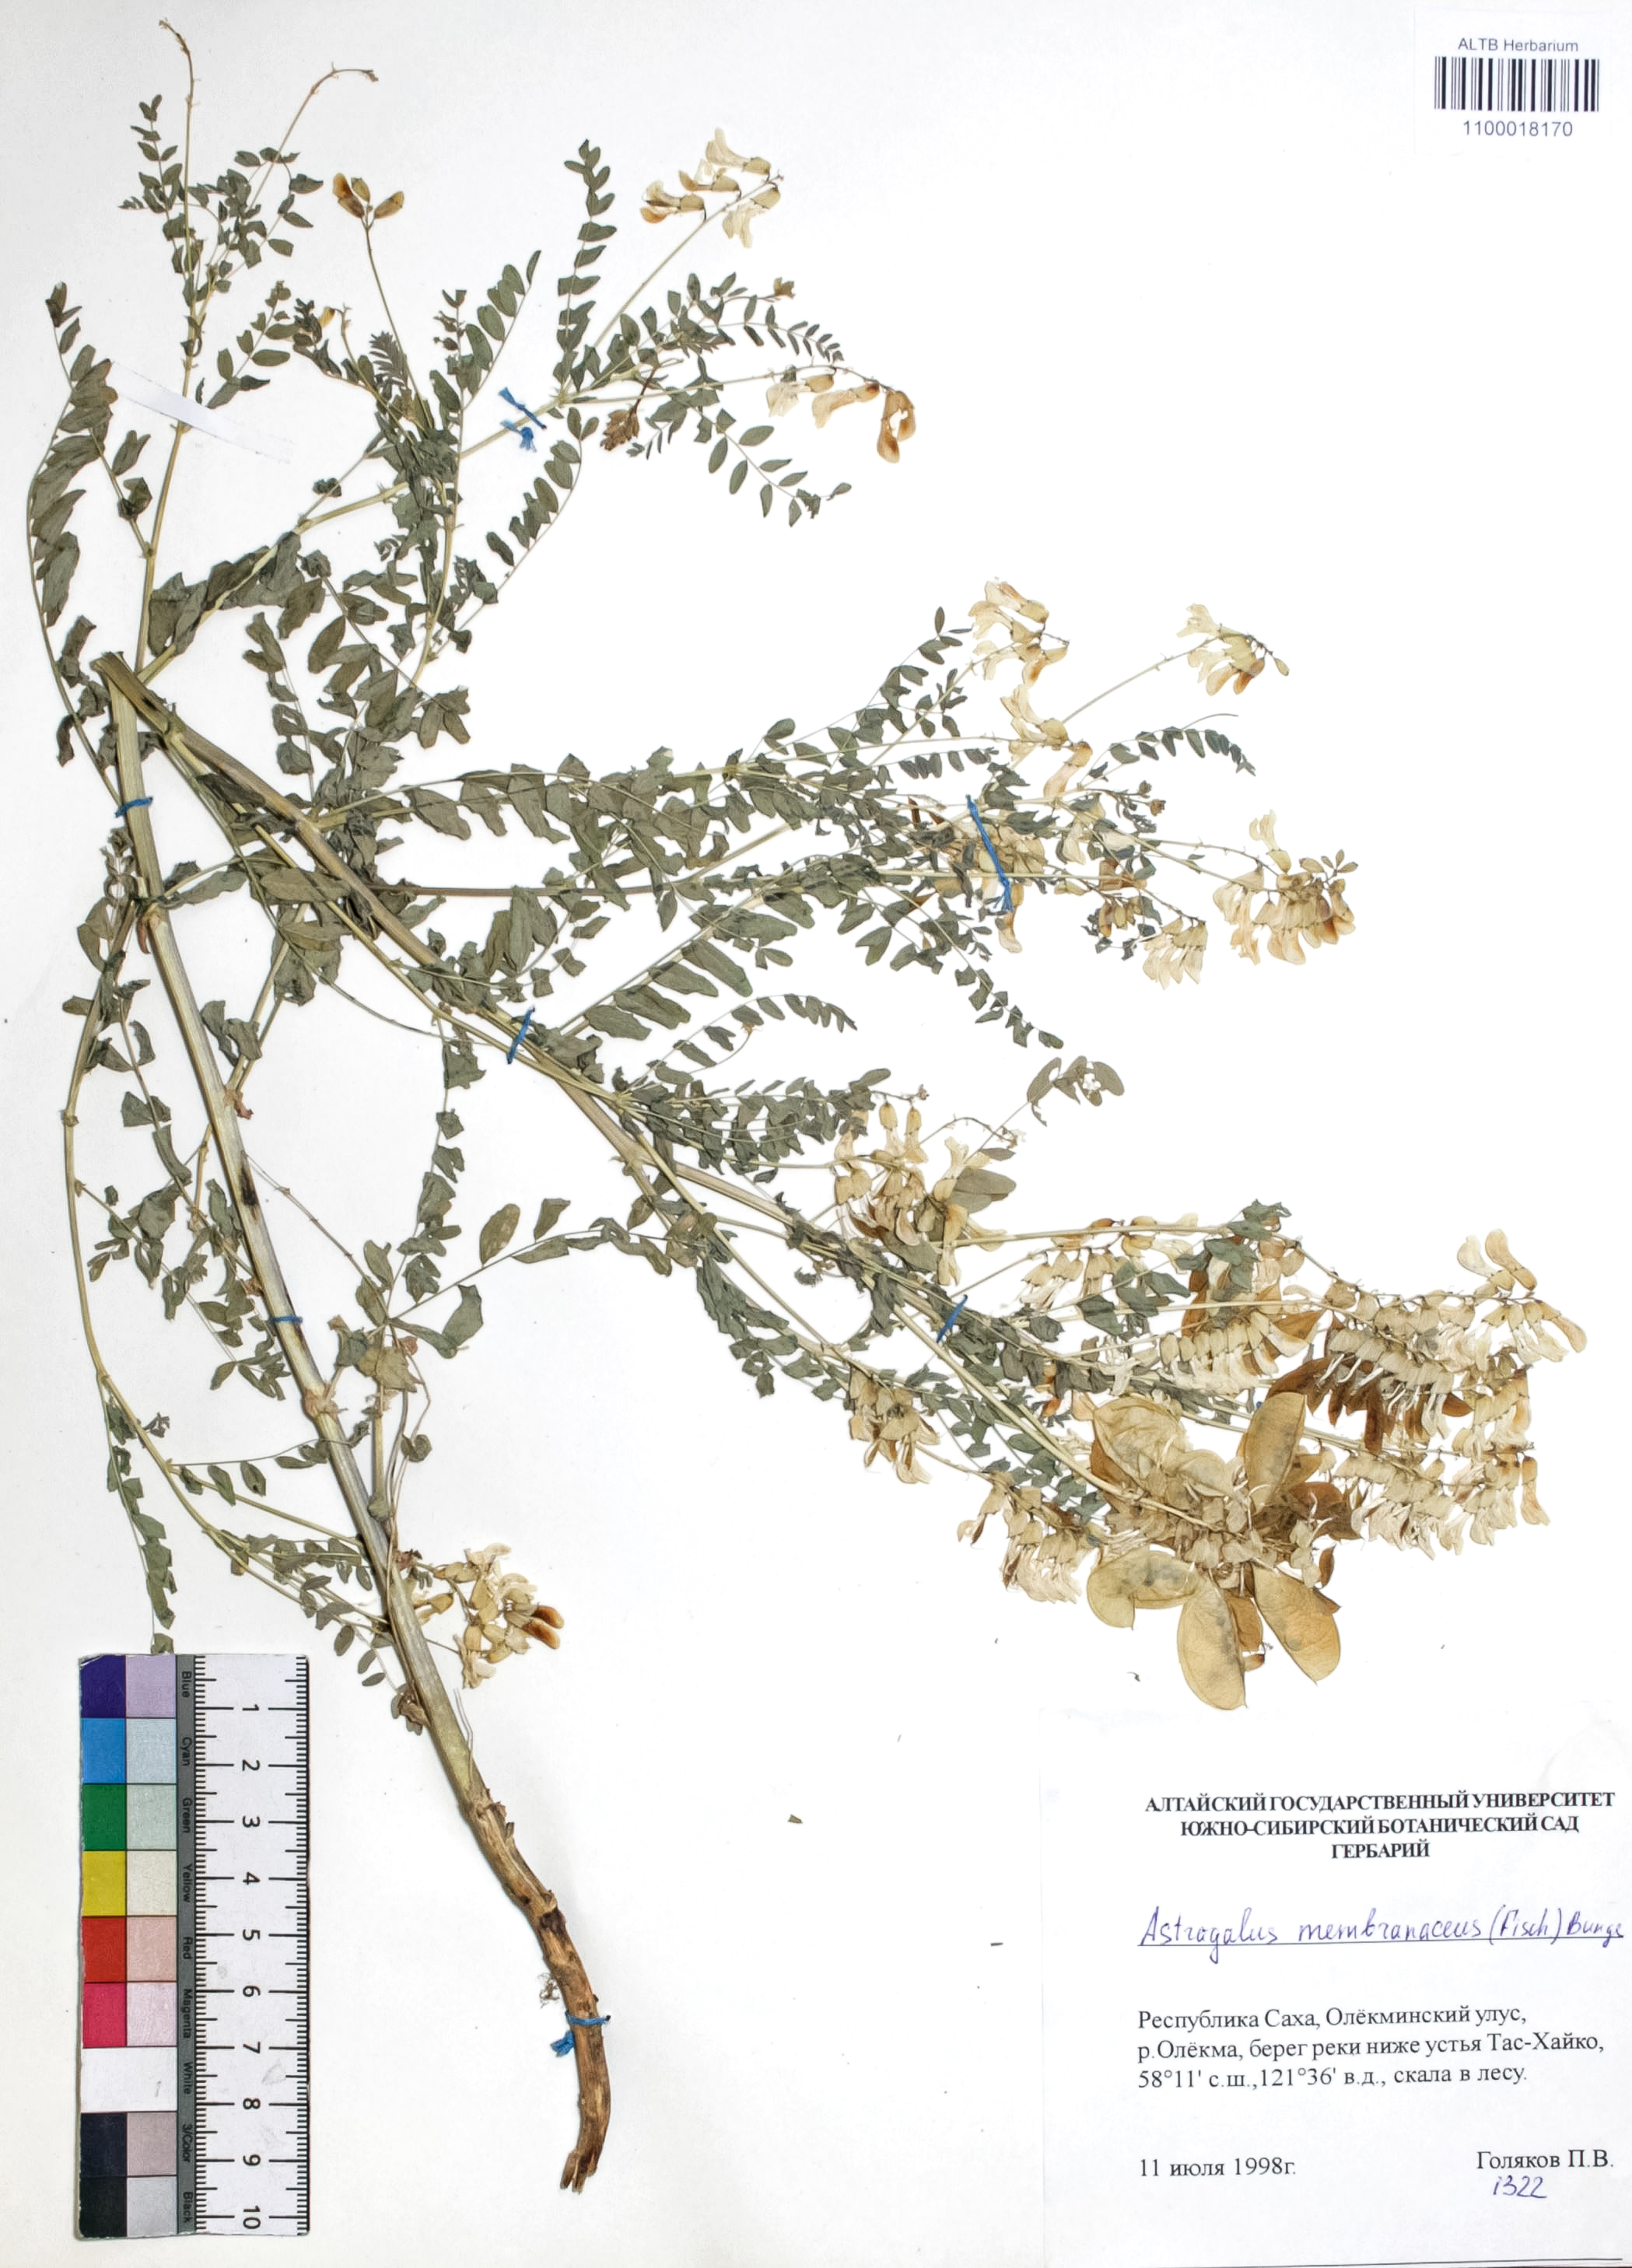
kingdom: Plantae
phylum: Tracheophyta
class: Magnoliopsida
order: Fabales
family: Fabaceae
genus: Astragalus
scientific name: Astragalus mongholicus
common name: Membranous milk-vetch
